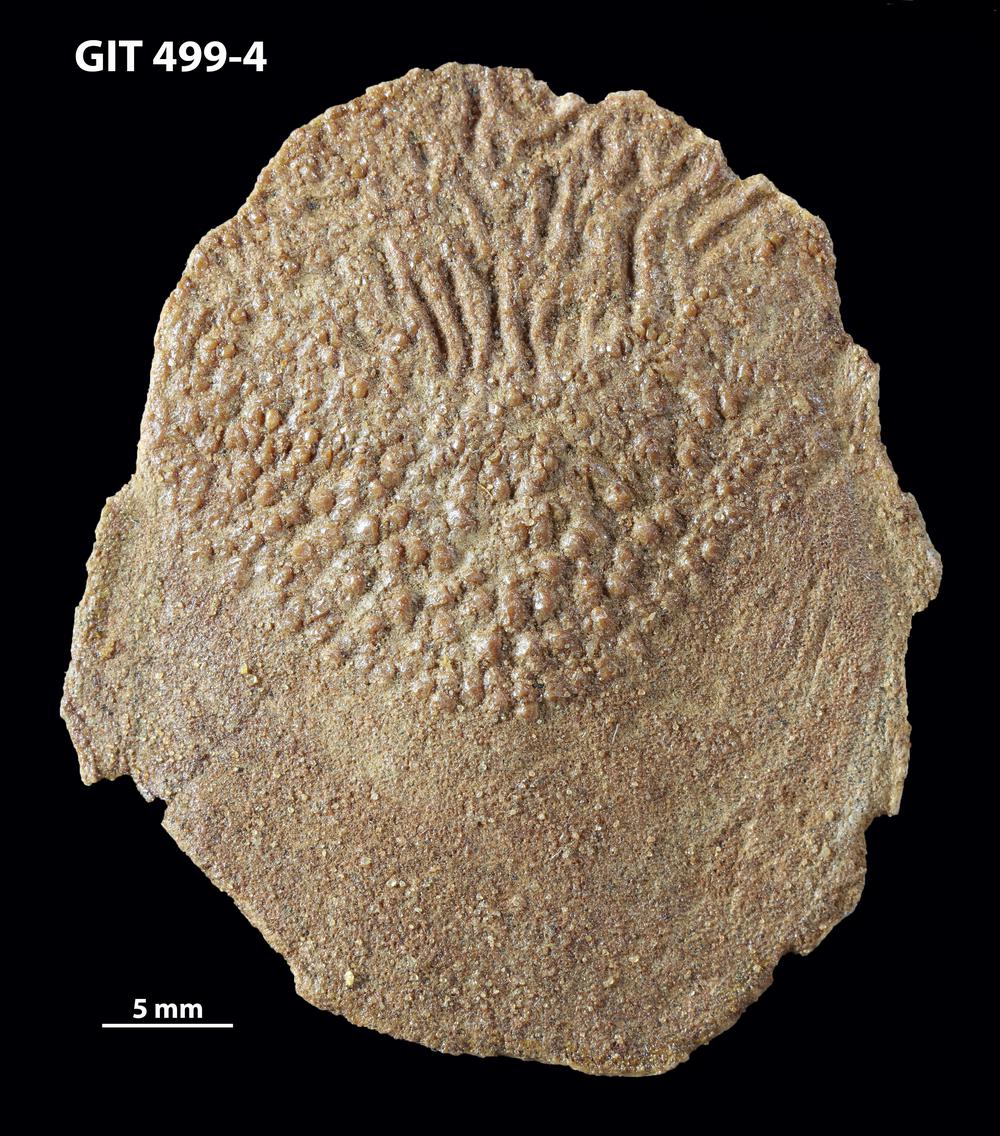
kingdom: Animalia
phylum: Chordata
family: Holoptychiidae
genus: Glyptolepis
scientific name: Glyptolepis
